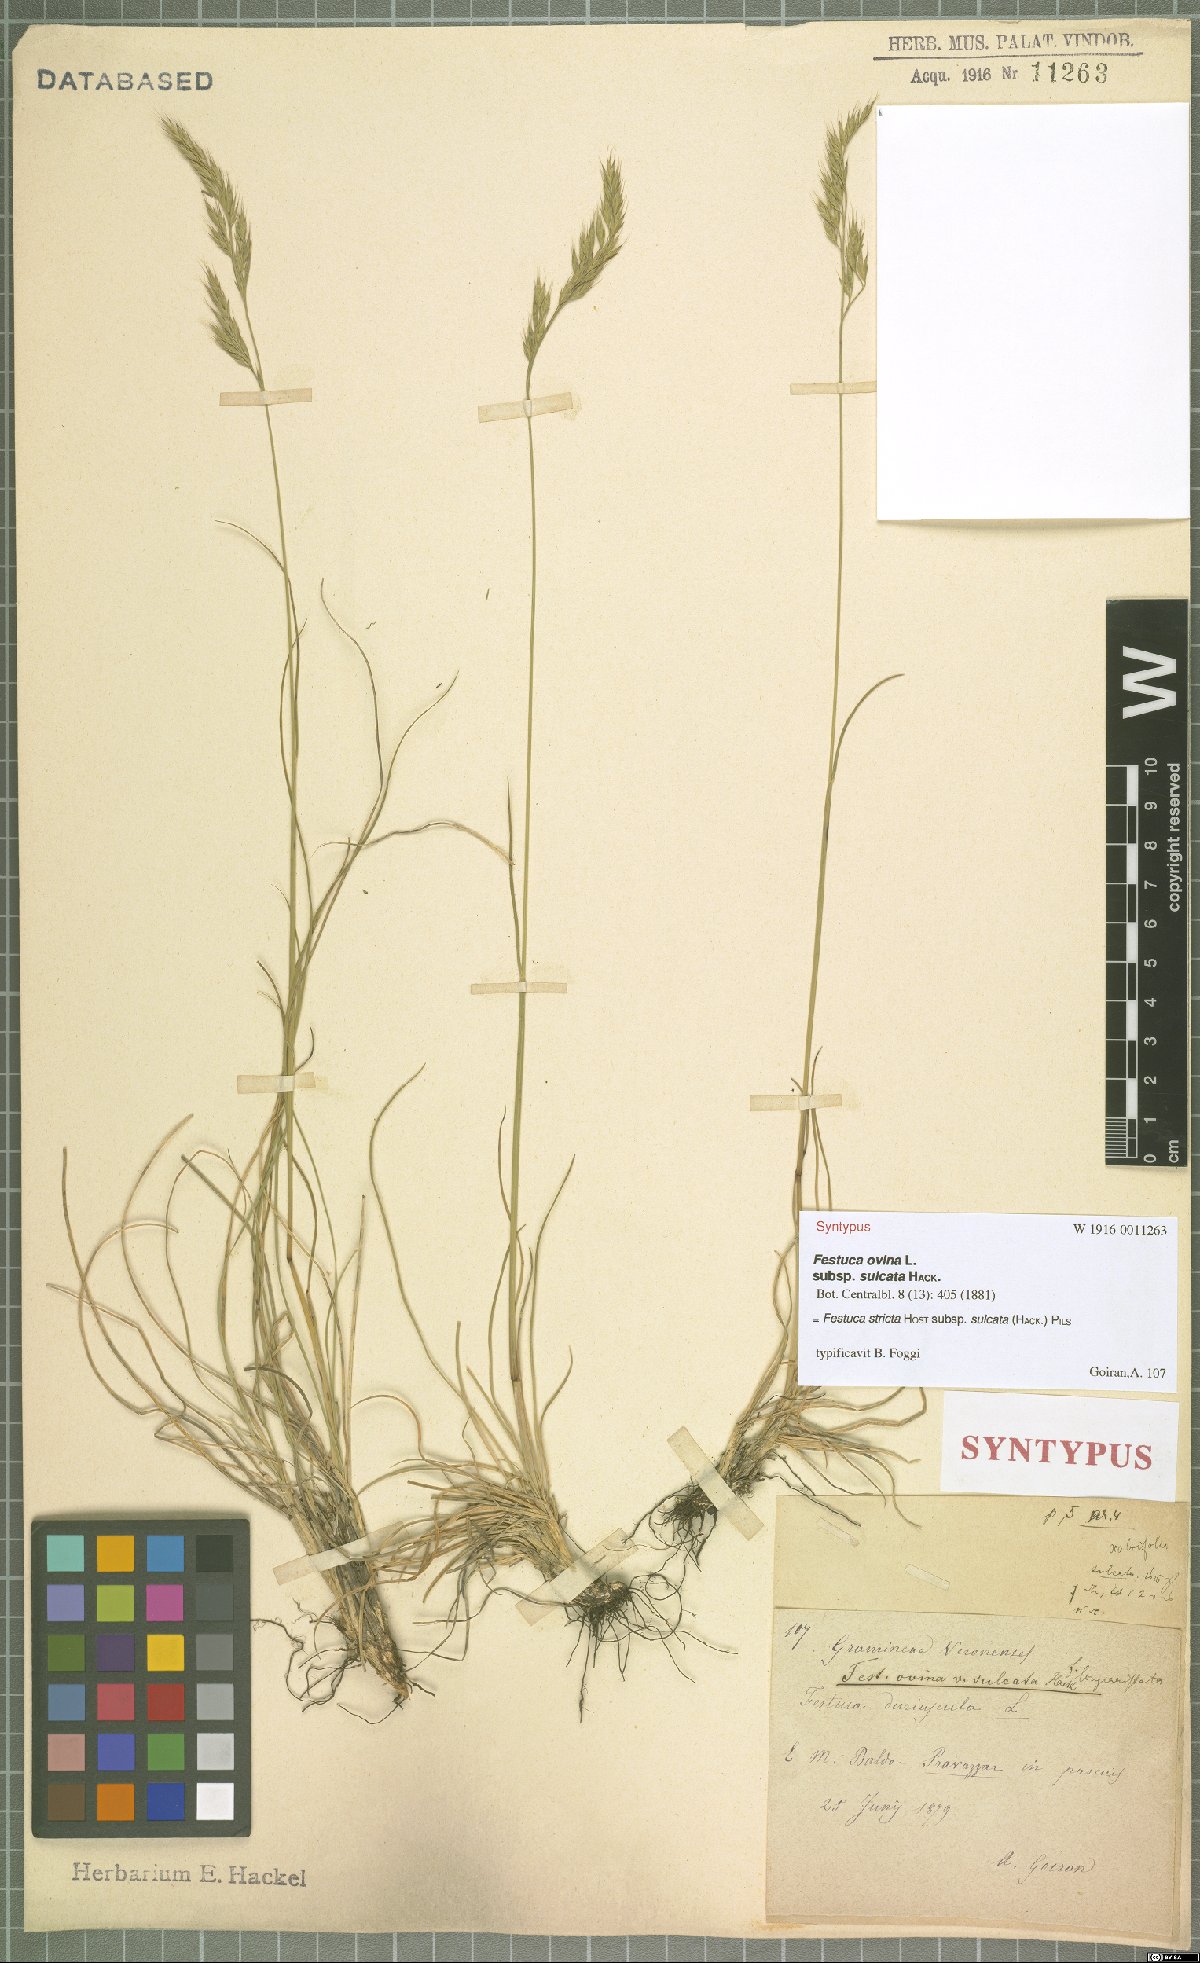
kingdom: Plantae
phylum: Tracheophyta
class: Liliopsida
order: Poales
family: Poaceae
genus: Festuca
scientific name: Festuca rupicola
